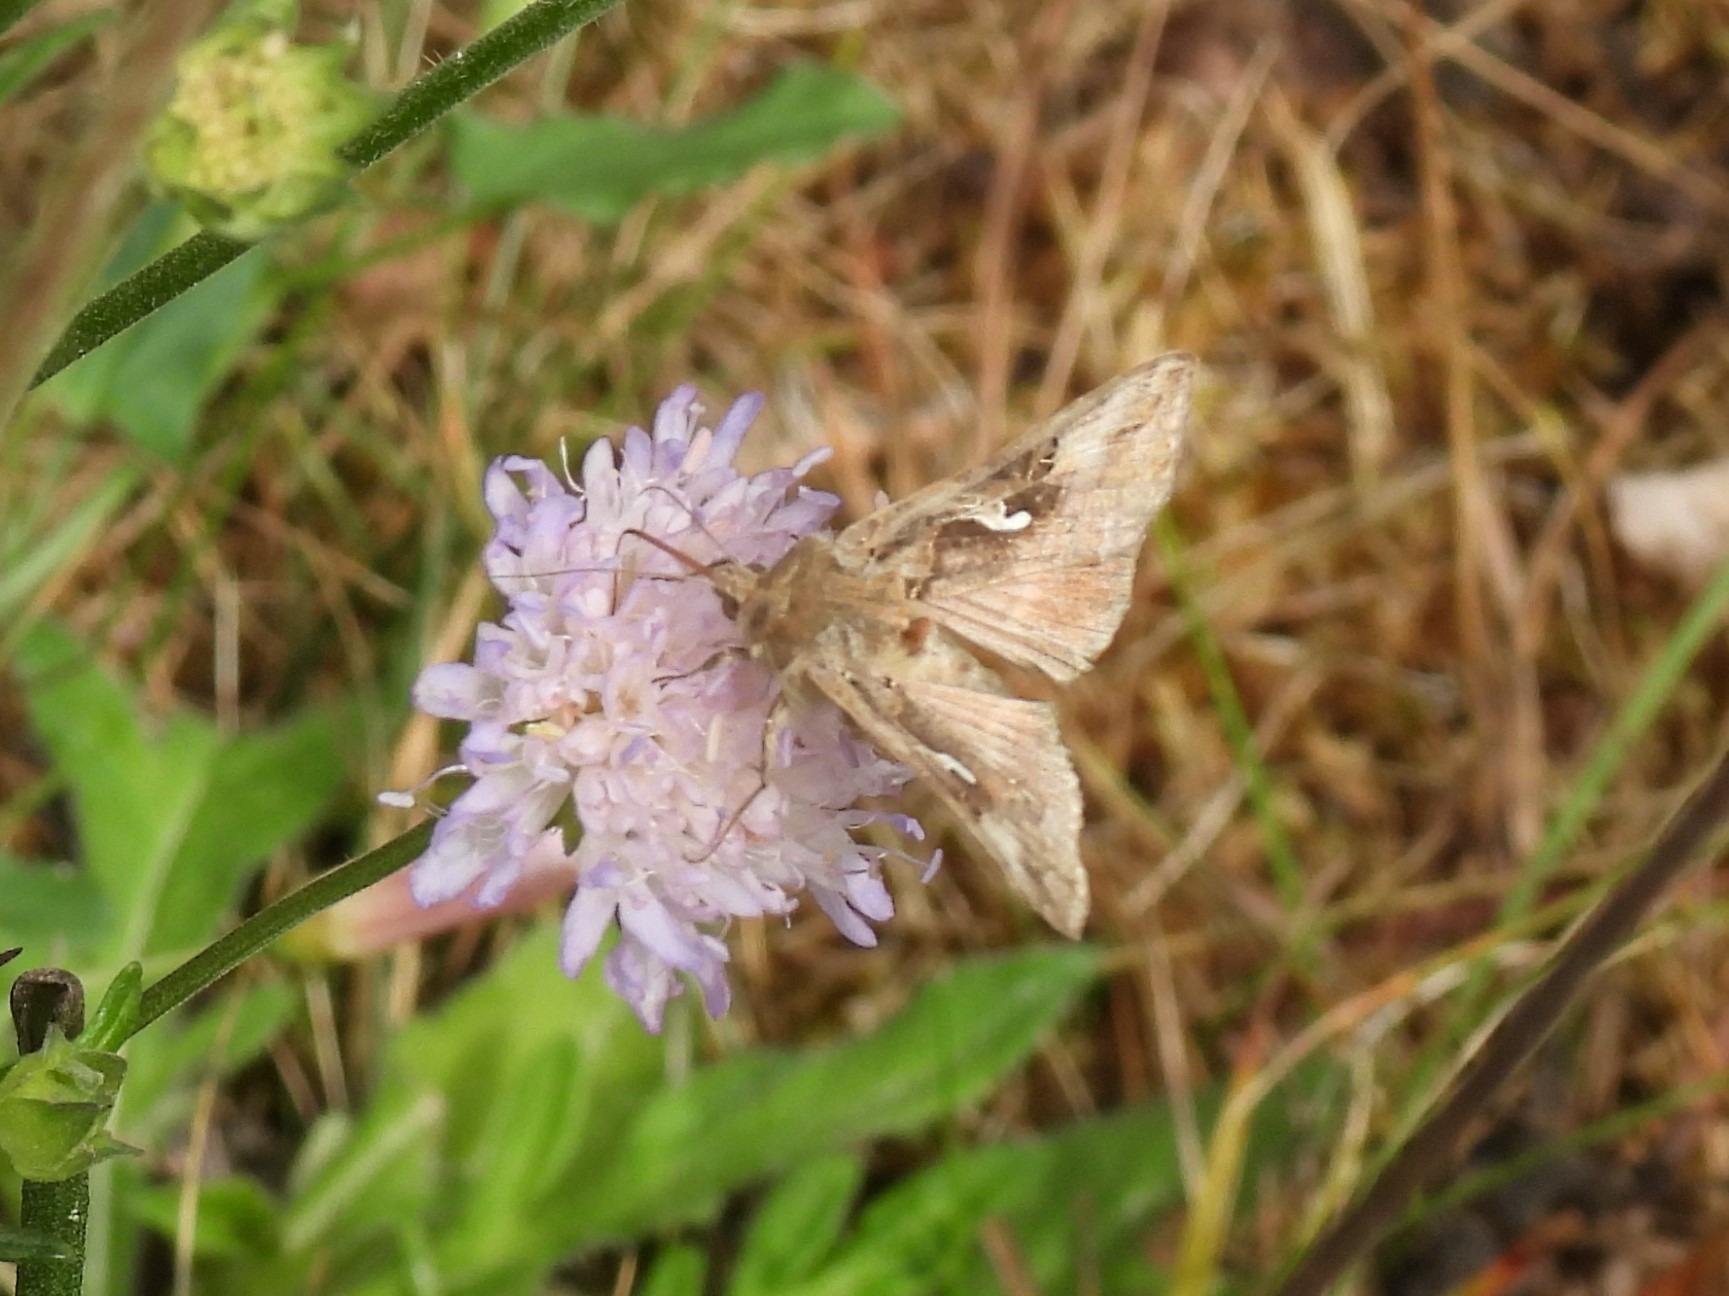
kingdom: Animalia
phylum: Arthropoda
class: Insecta
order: Lepidoptera
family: Noctuidae
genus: Autographa
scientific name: Autographa gamma
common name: Gammaugle
